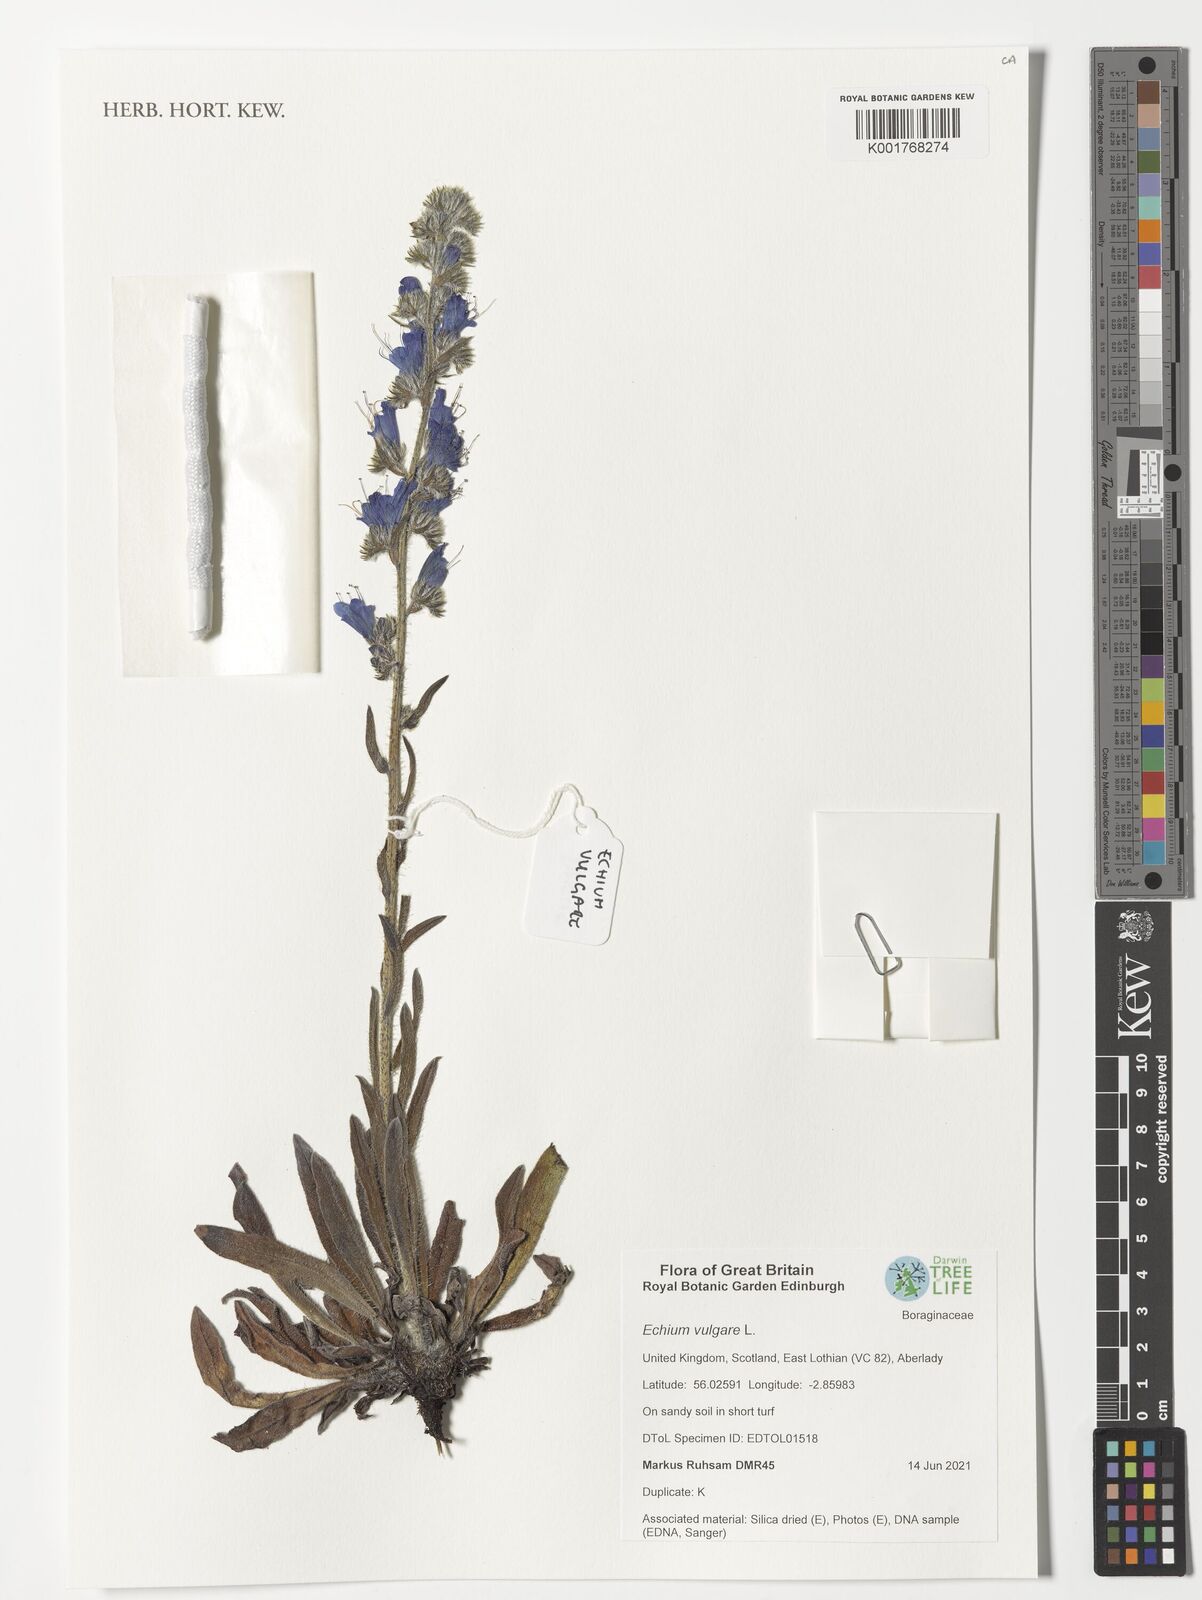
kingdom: Plantae
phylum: Tracheophyta
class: Magnoliopsida
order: Boraginales
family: Boraginaceae
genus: Echium
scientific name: Echium vulgare
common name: Common viper's bugloss
